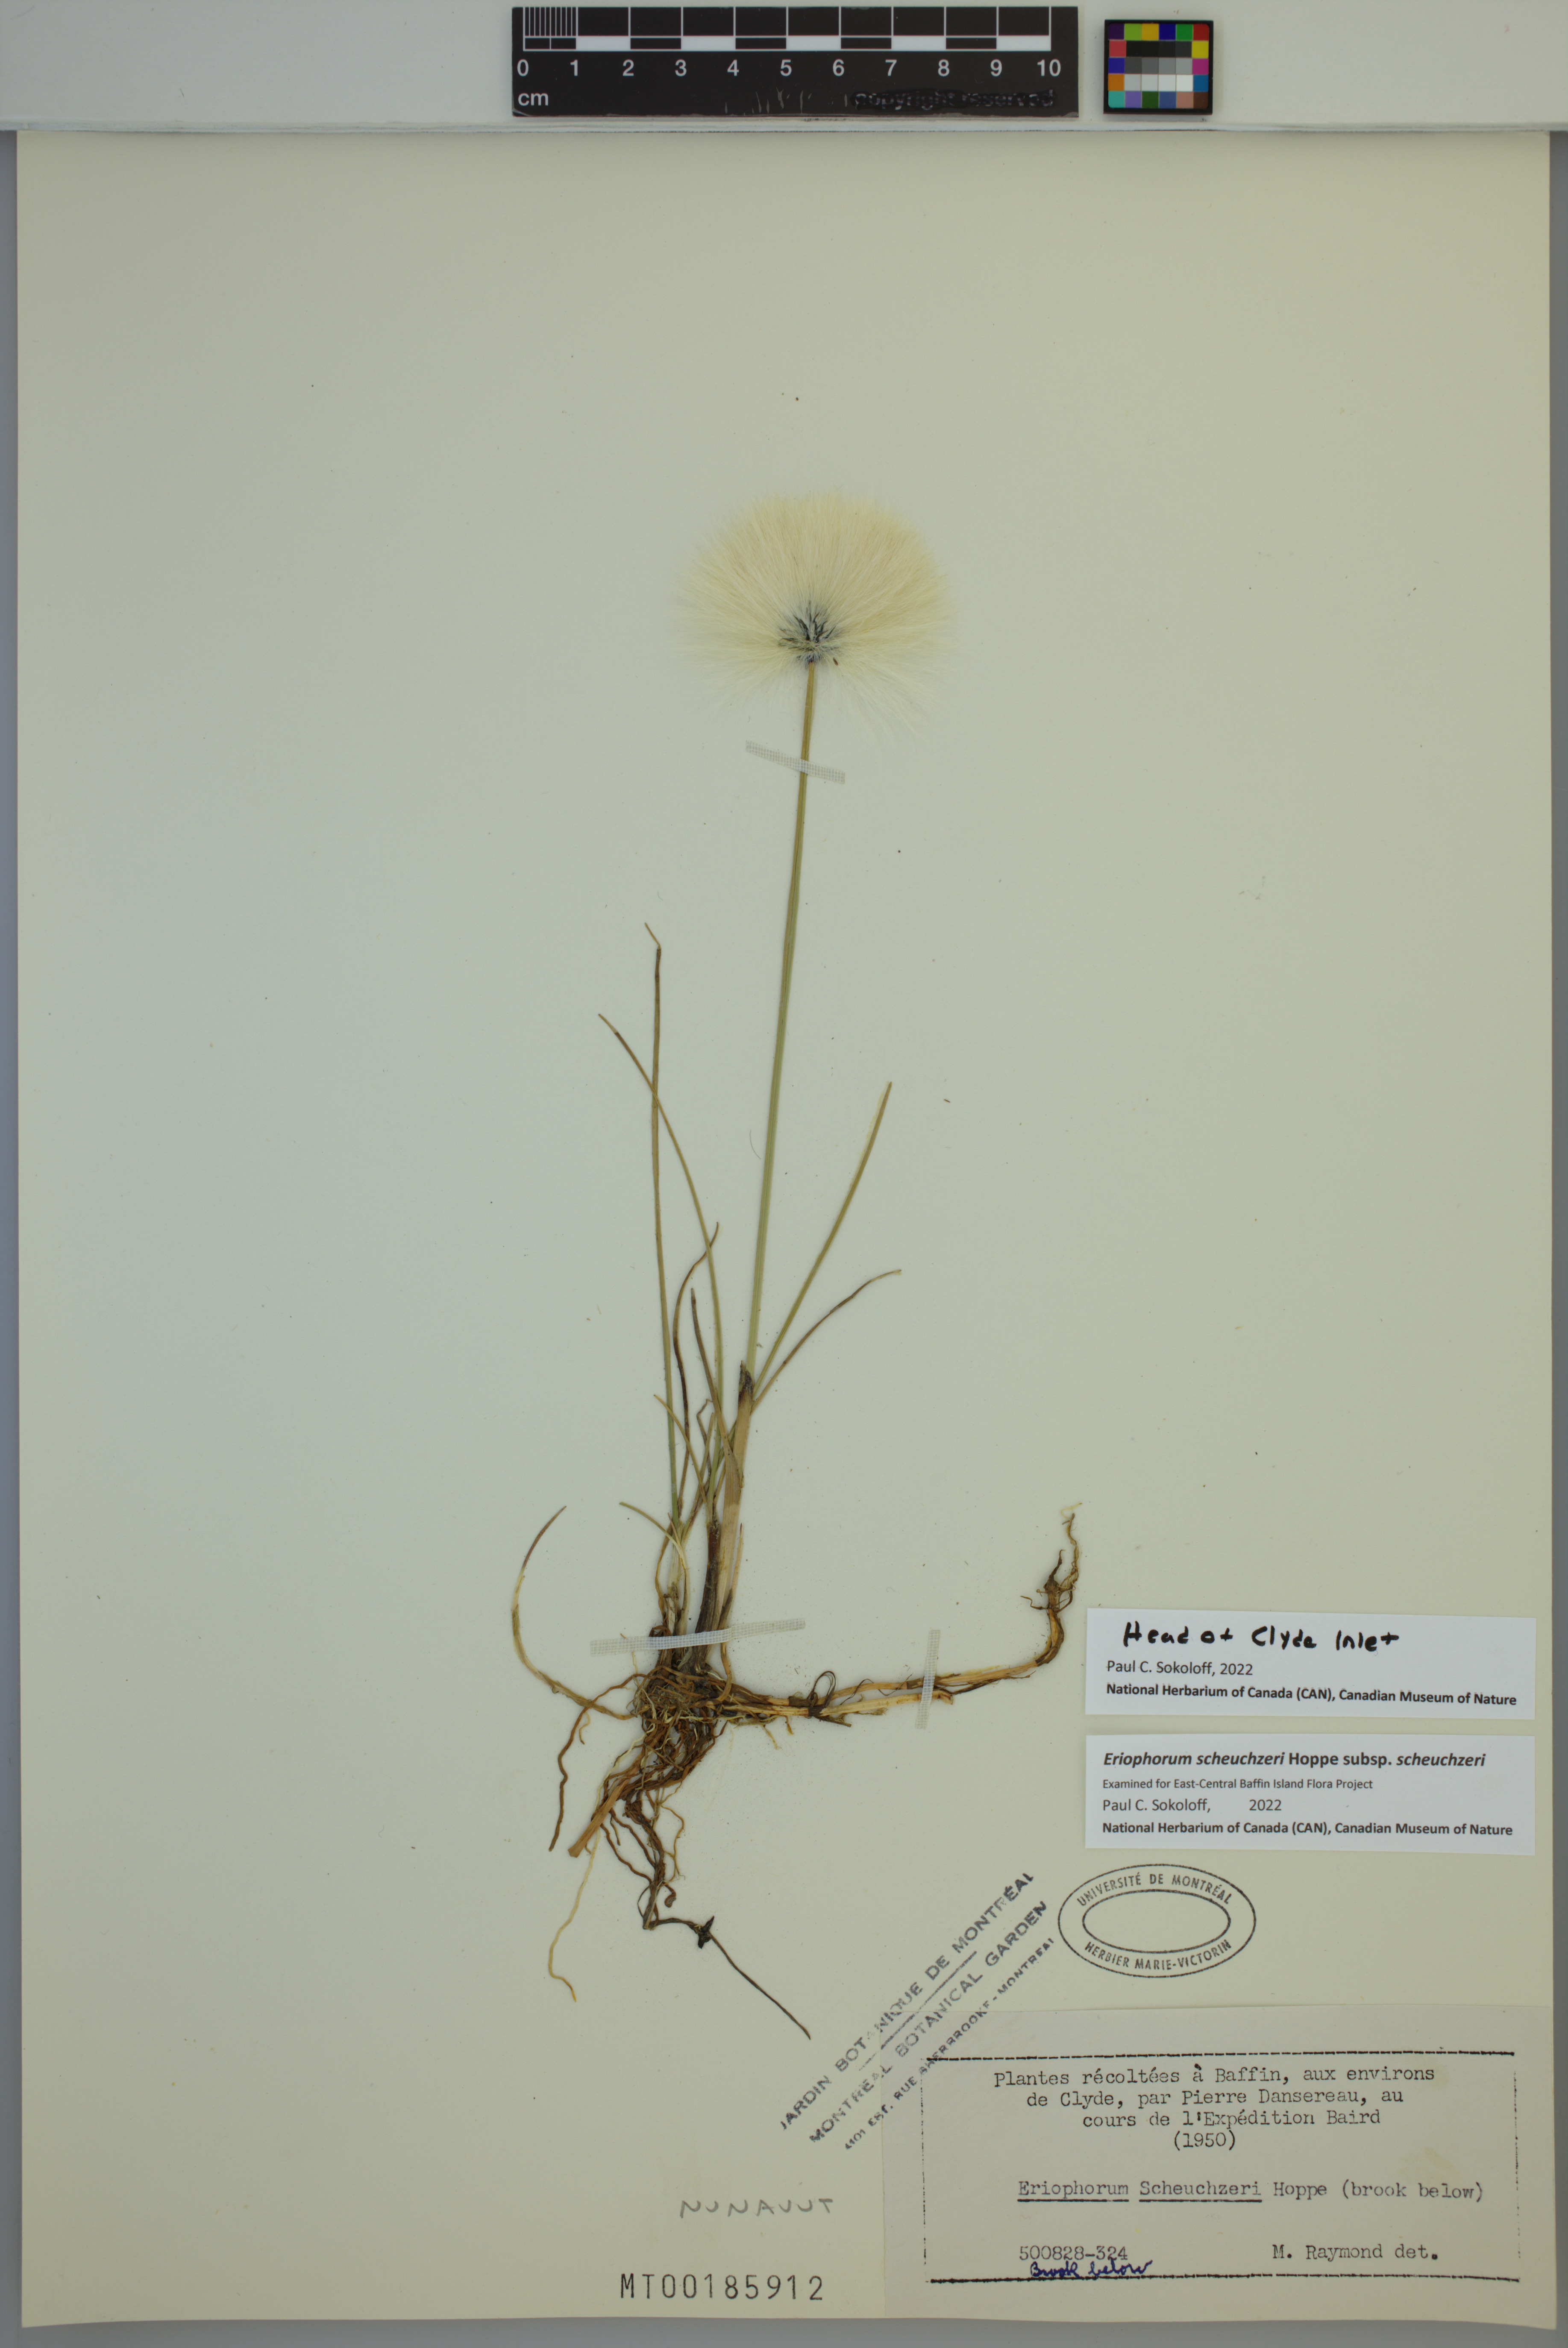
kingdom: Plantae
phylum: Tracheophyta
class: Liliopsida
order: Poales
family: Cyperaceae
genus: Eriophorum
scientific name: Eriophorum scheuchzeri
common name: Scheuchzer's cottongrass
